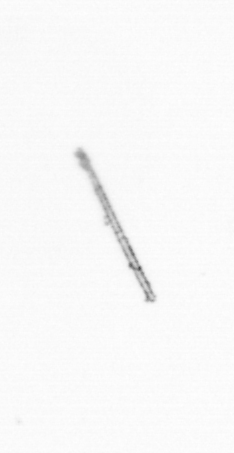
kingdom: Chromista
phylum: Ochrophyta
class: Bacillariophyceae
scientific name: Bacillariophyceae
